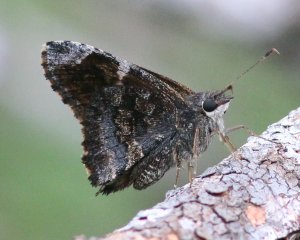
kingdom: Animalia
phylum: Arthropoda
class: Insecta
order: Lepidoptera
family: Hesperiidae
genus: Caicella
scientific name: Caicella calchas
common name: Mimosa Skipper
